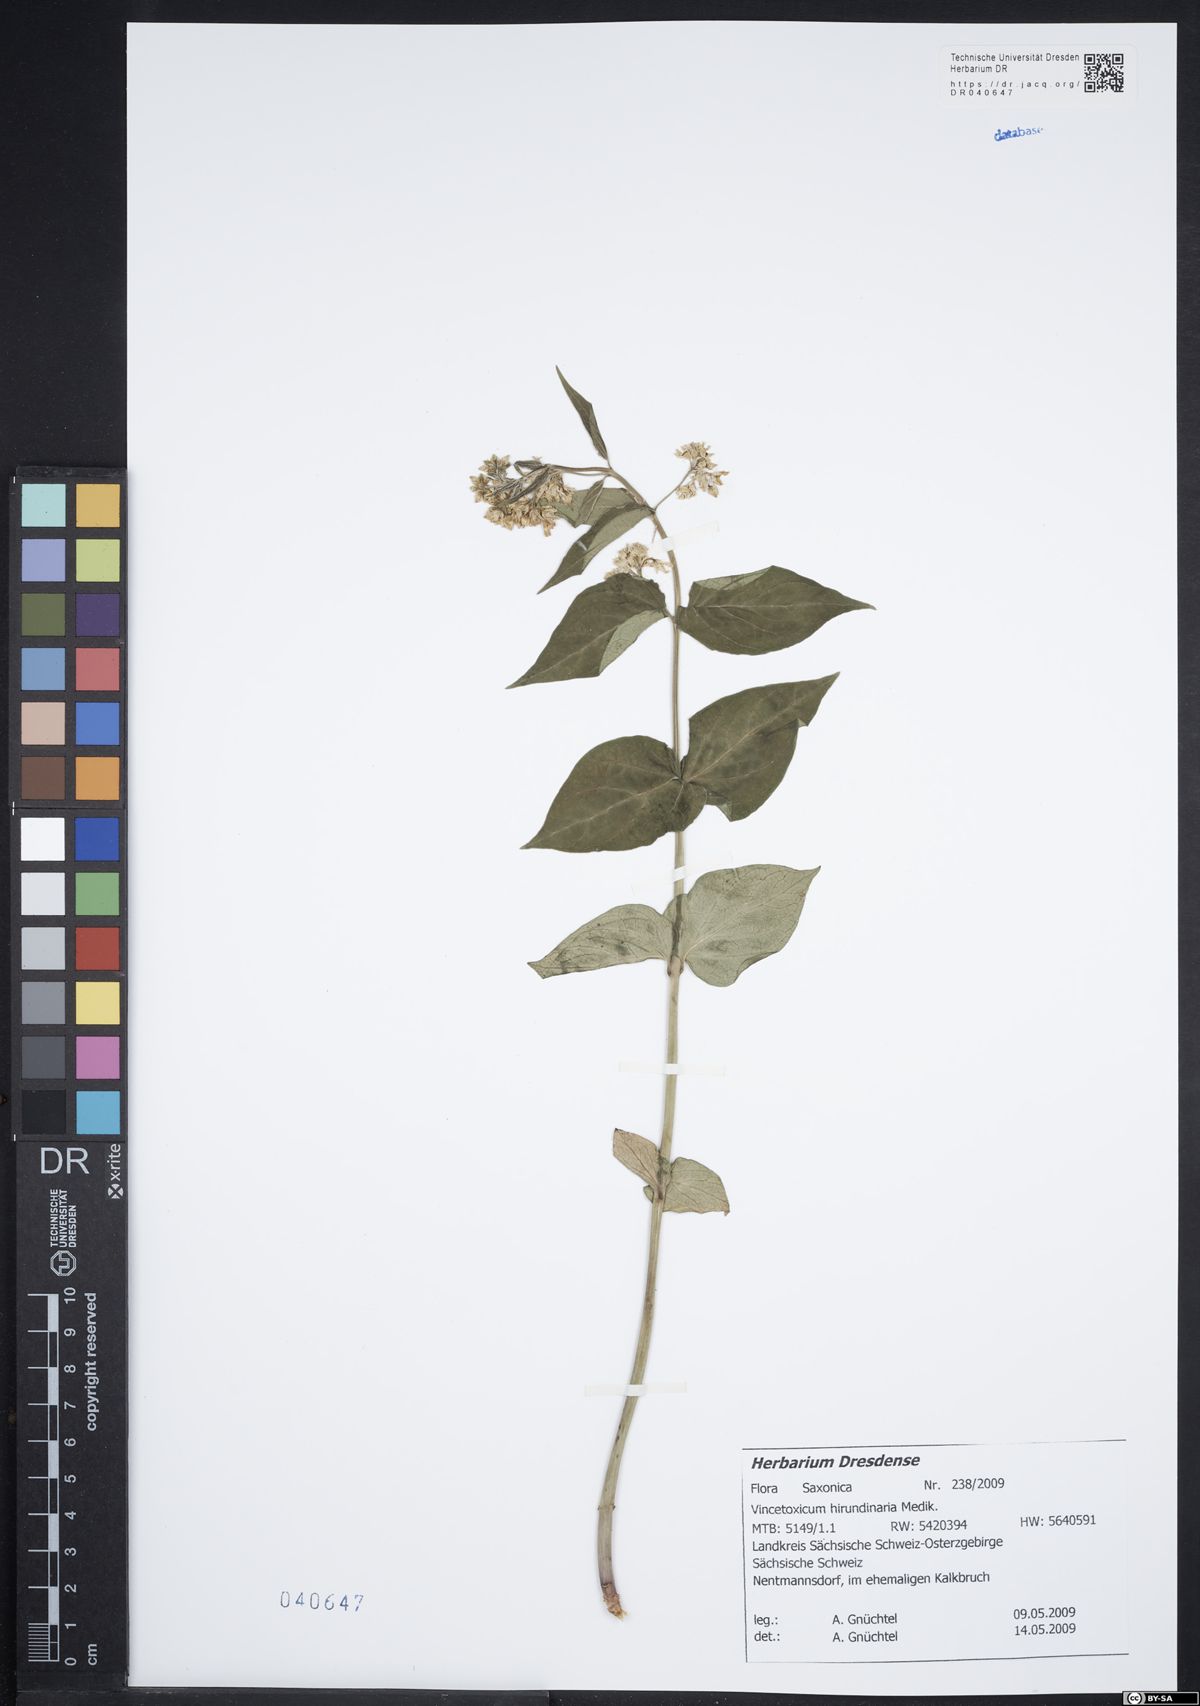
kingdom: Plantae
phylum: Tracheophyta
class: Magnoliopsida
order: Gentianales
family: Apocynaceae
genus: Vincetoxicum
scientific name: Vincetoxicum hirundinaria
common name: White swallowwort
